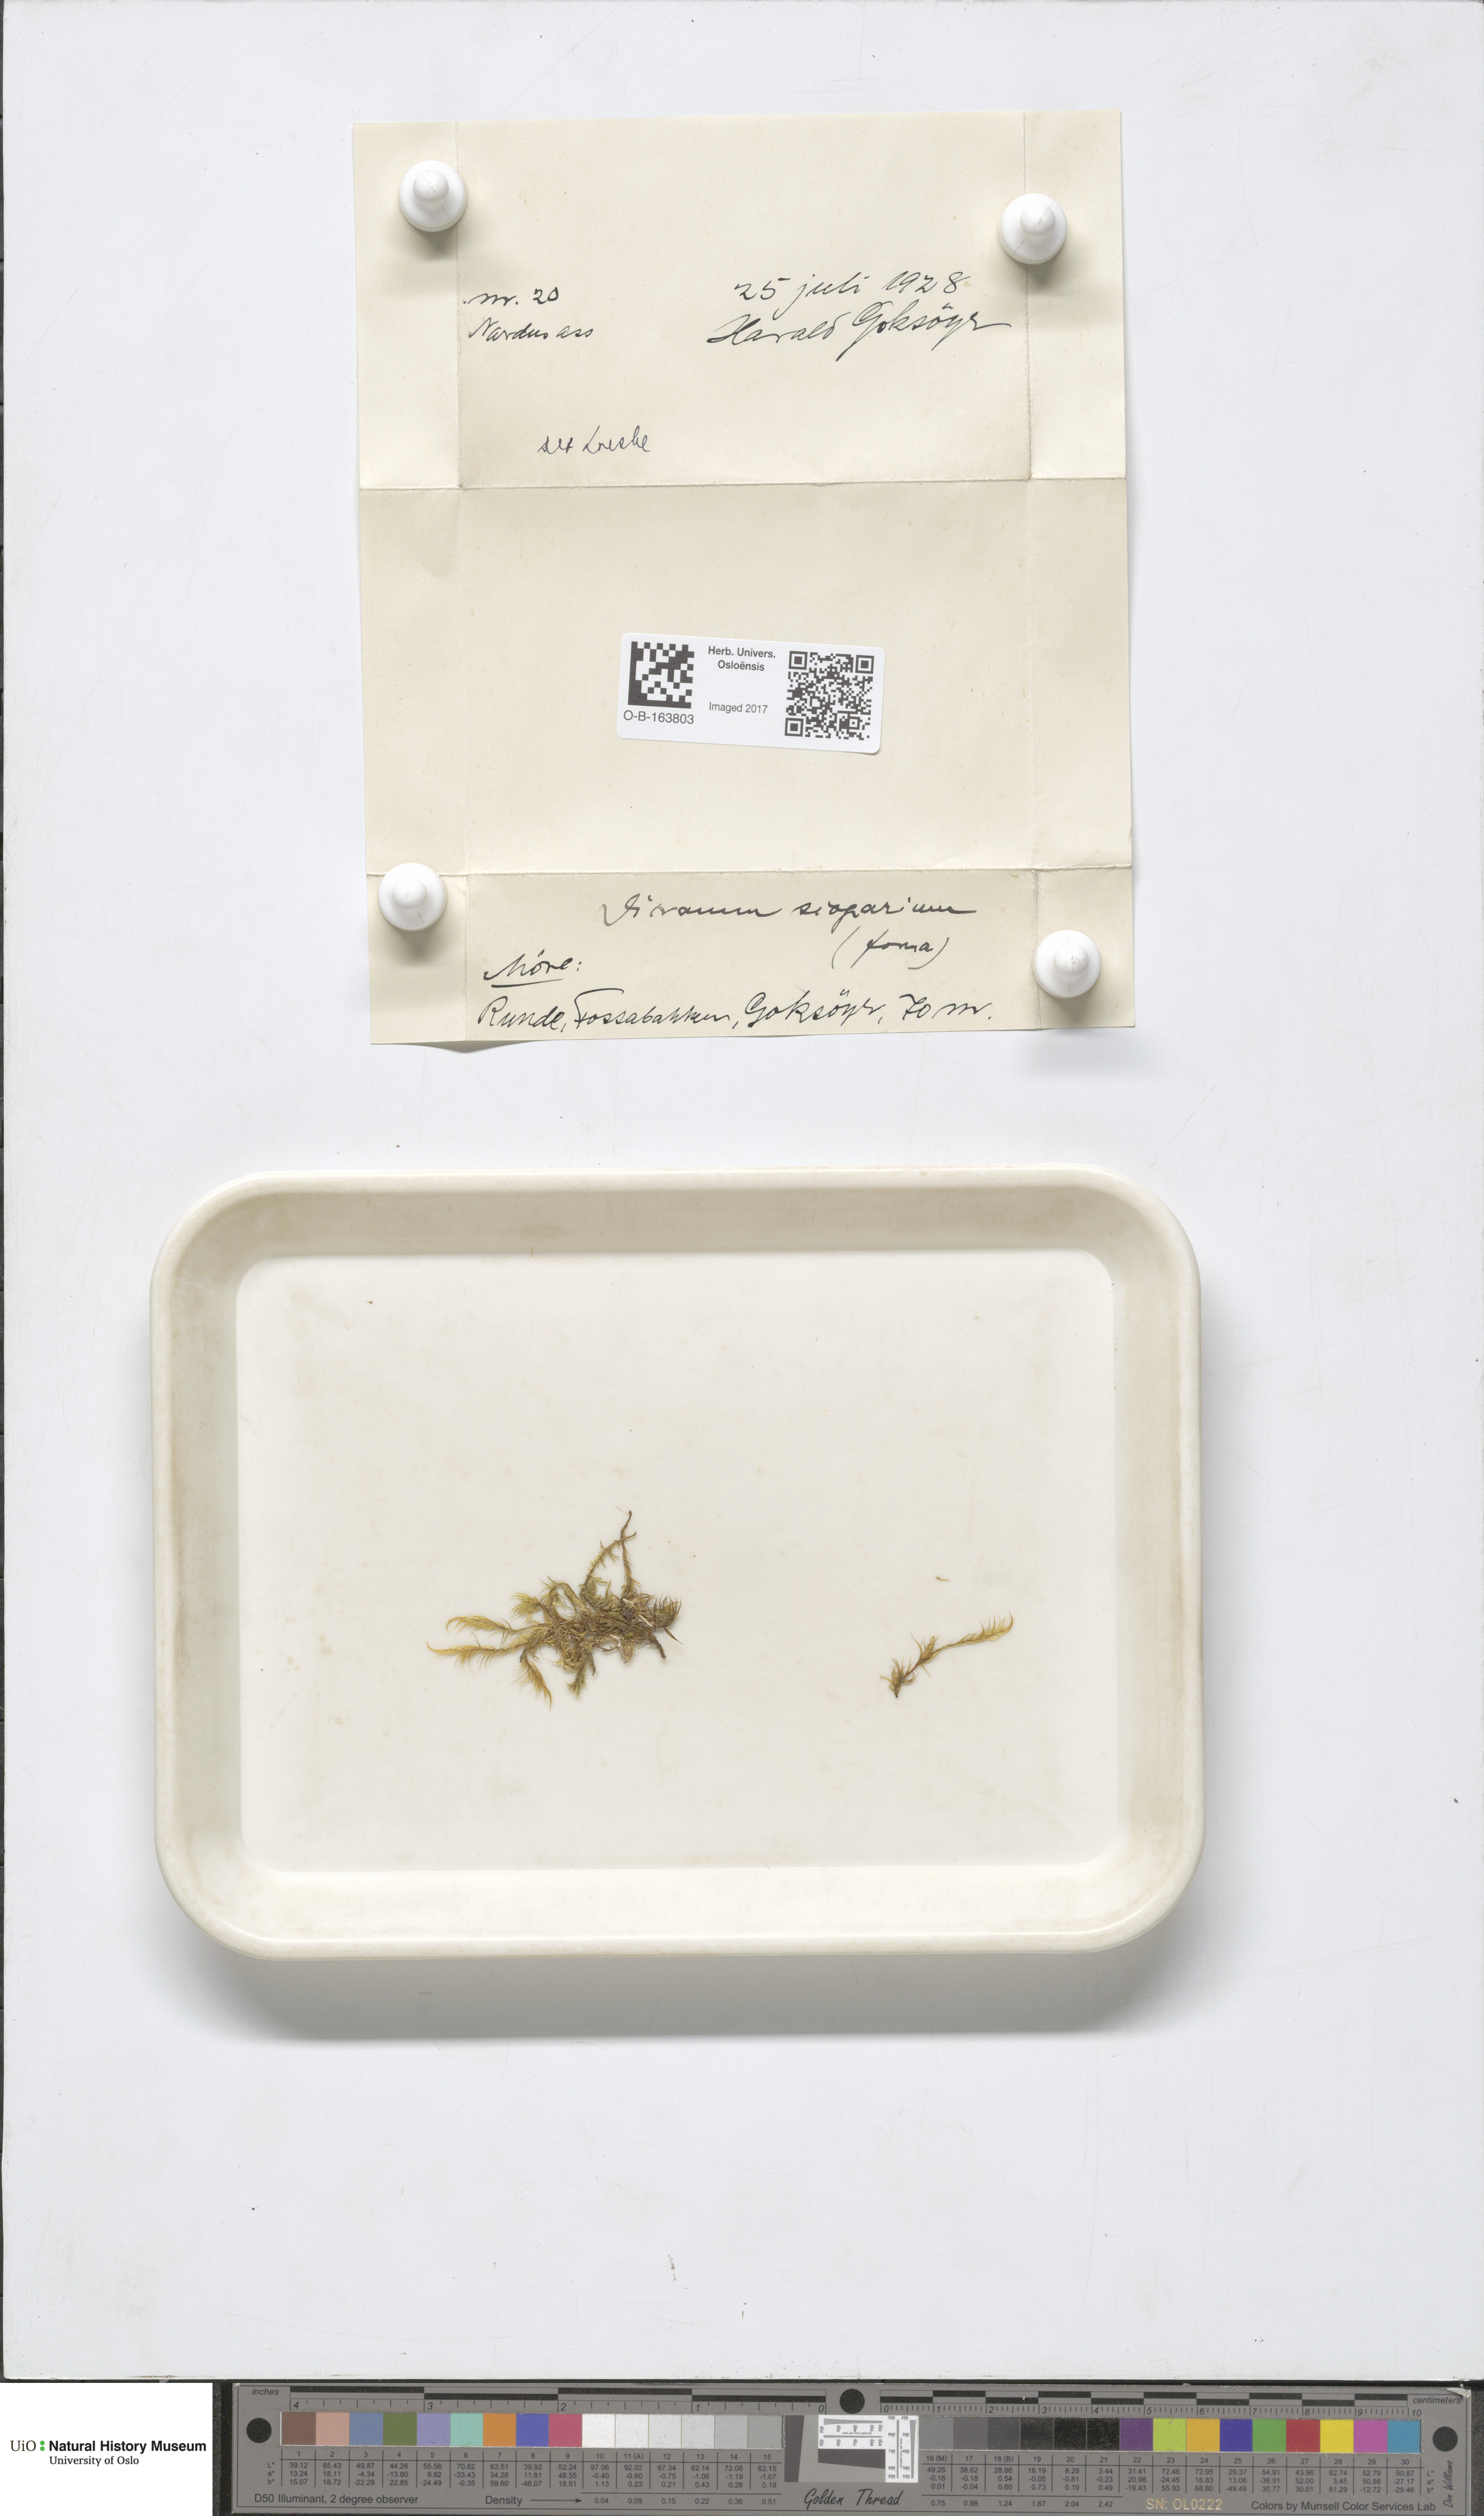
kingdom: Plantae
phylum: Bryophyta
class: Bryopsida
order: Dicranales
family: Dicranaceae
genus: Dicranum
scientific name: Dicranum scoparium
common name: Broom fork-moss
